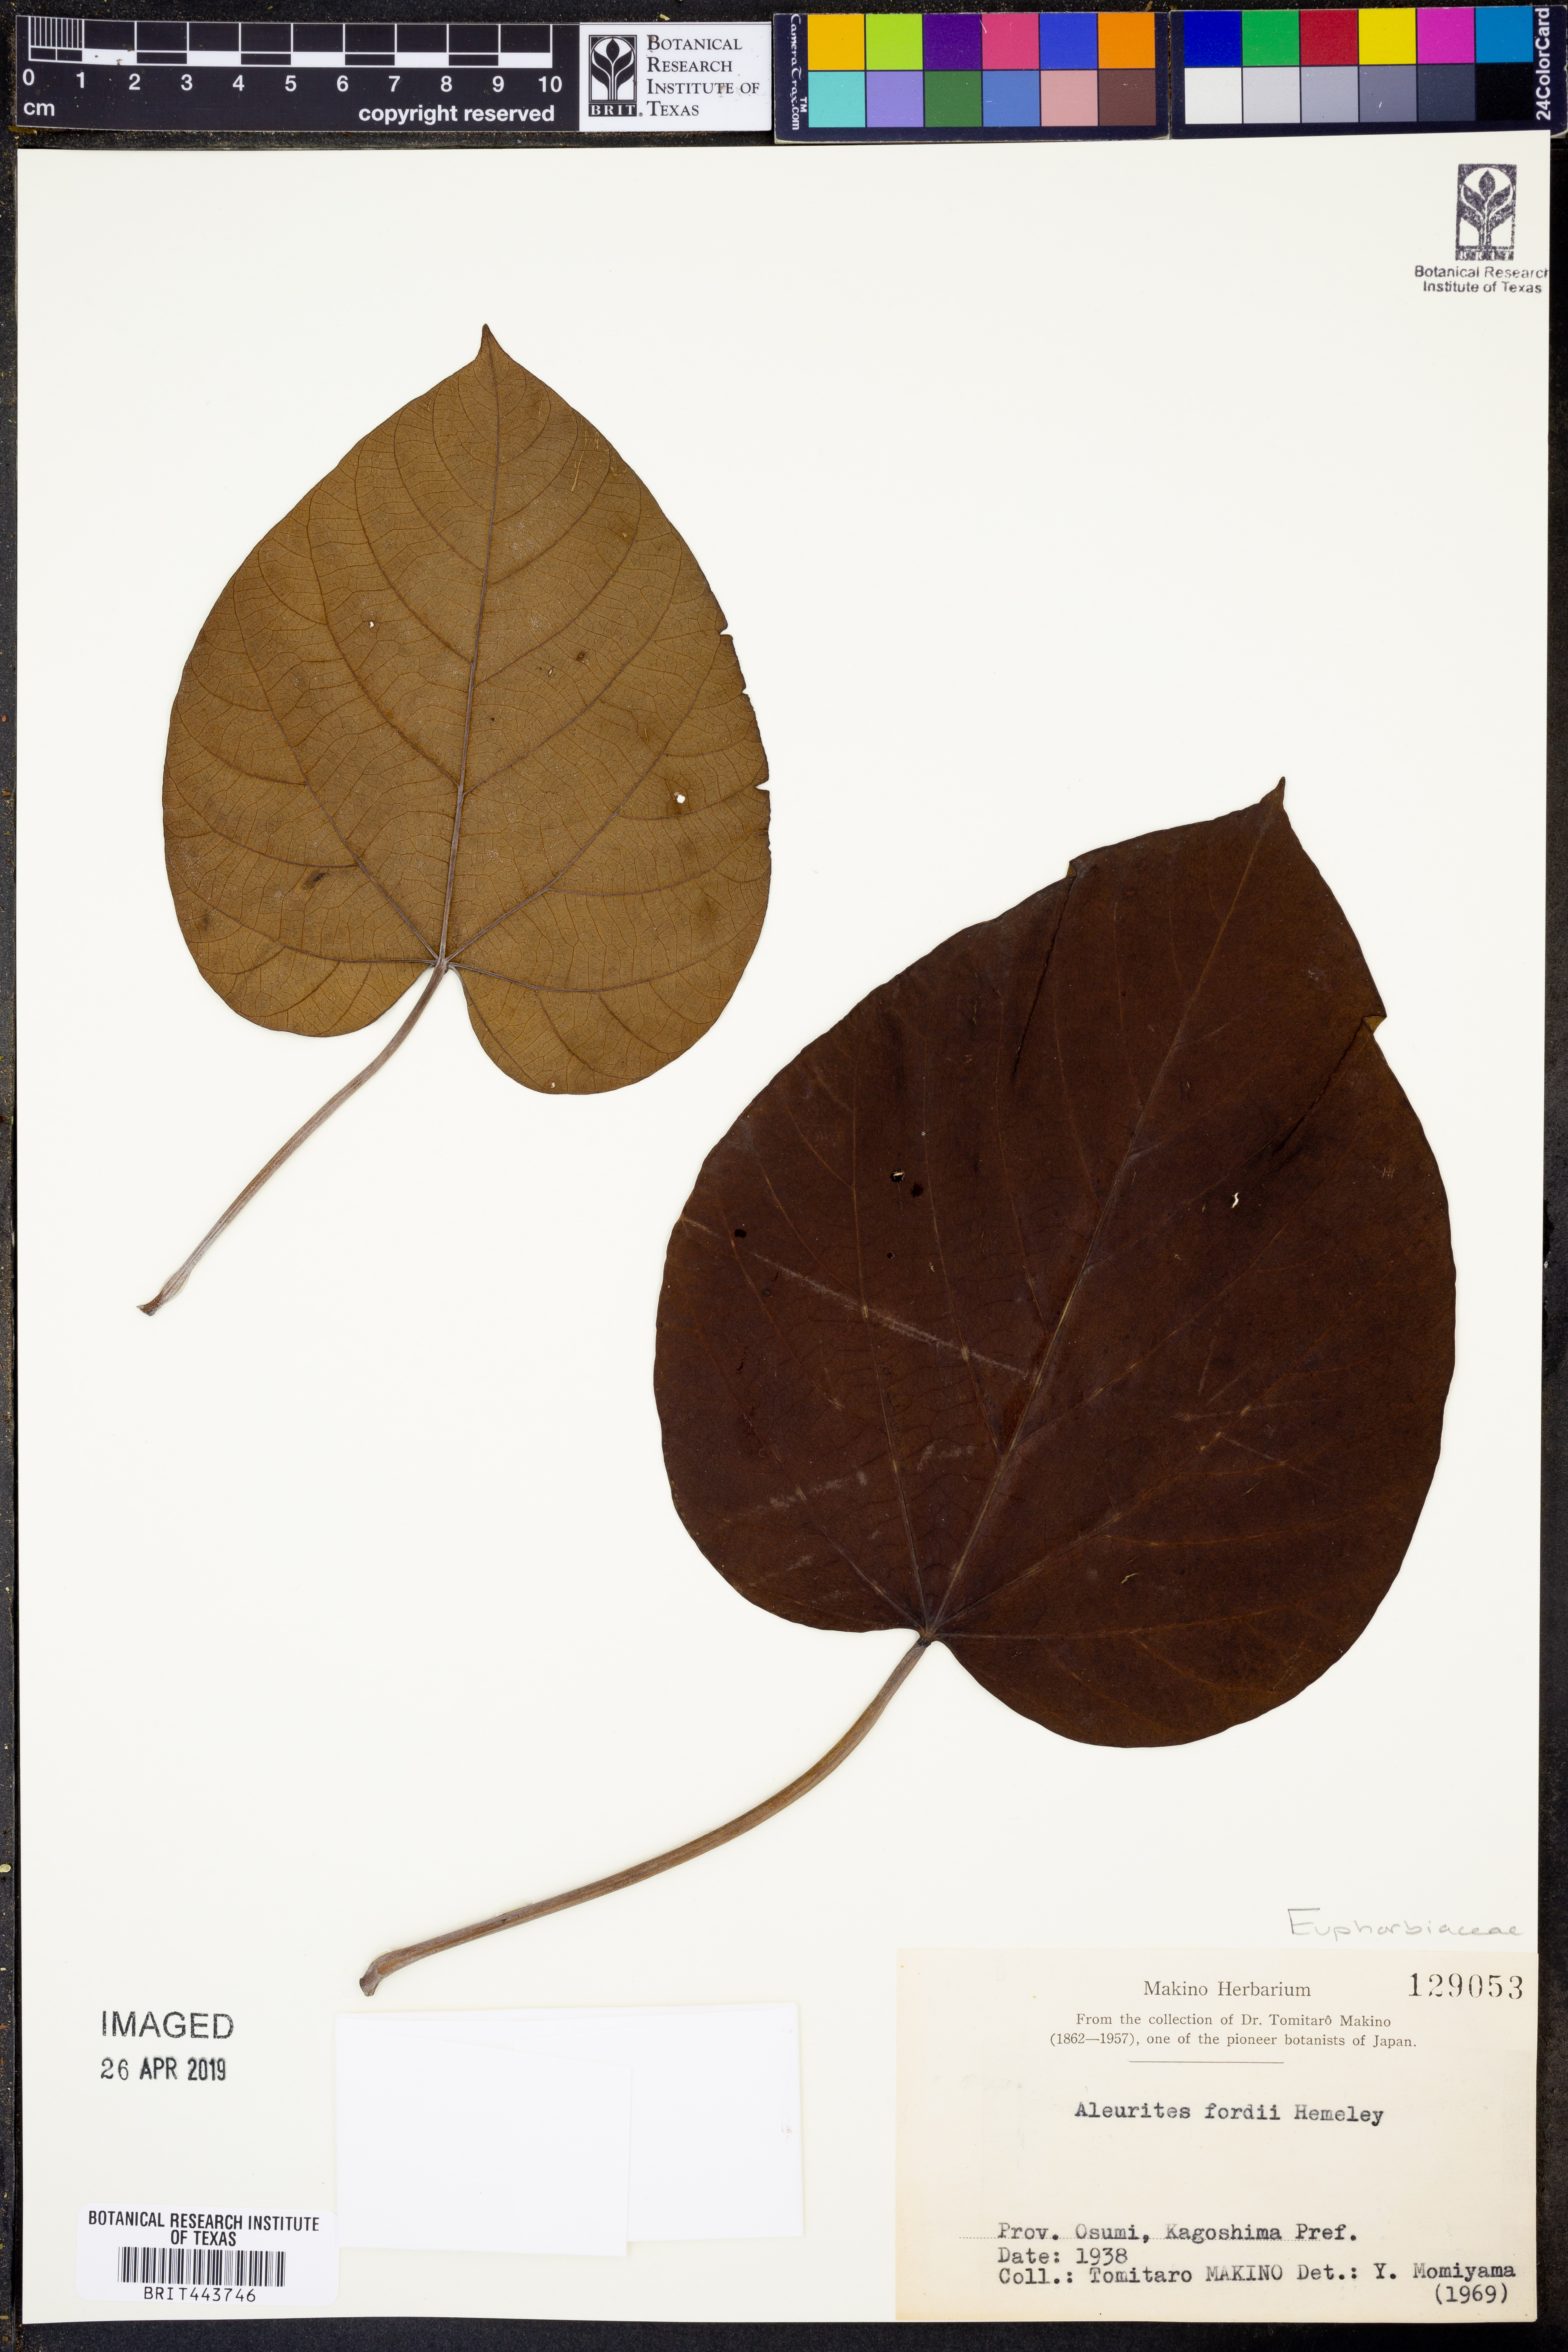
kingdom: Plantae
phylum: Tracheophyta
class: Magnoliopsida
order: Malpighiales
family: Euphorbiaceae
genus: Vernicia
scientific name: Vernicia fordii
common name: Tungoil tree
